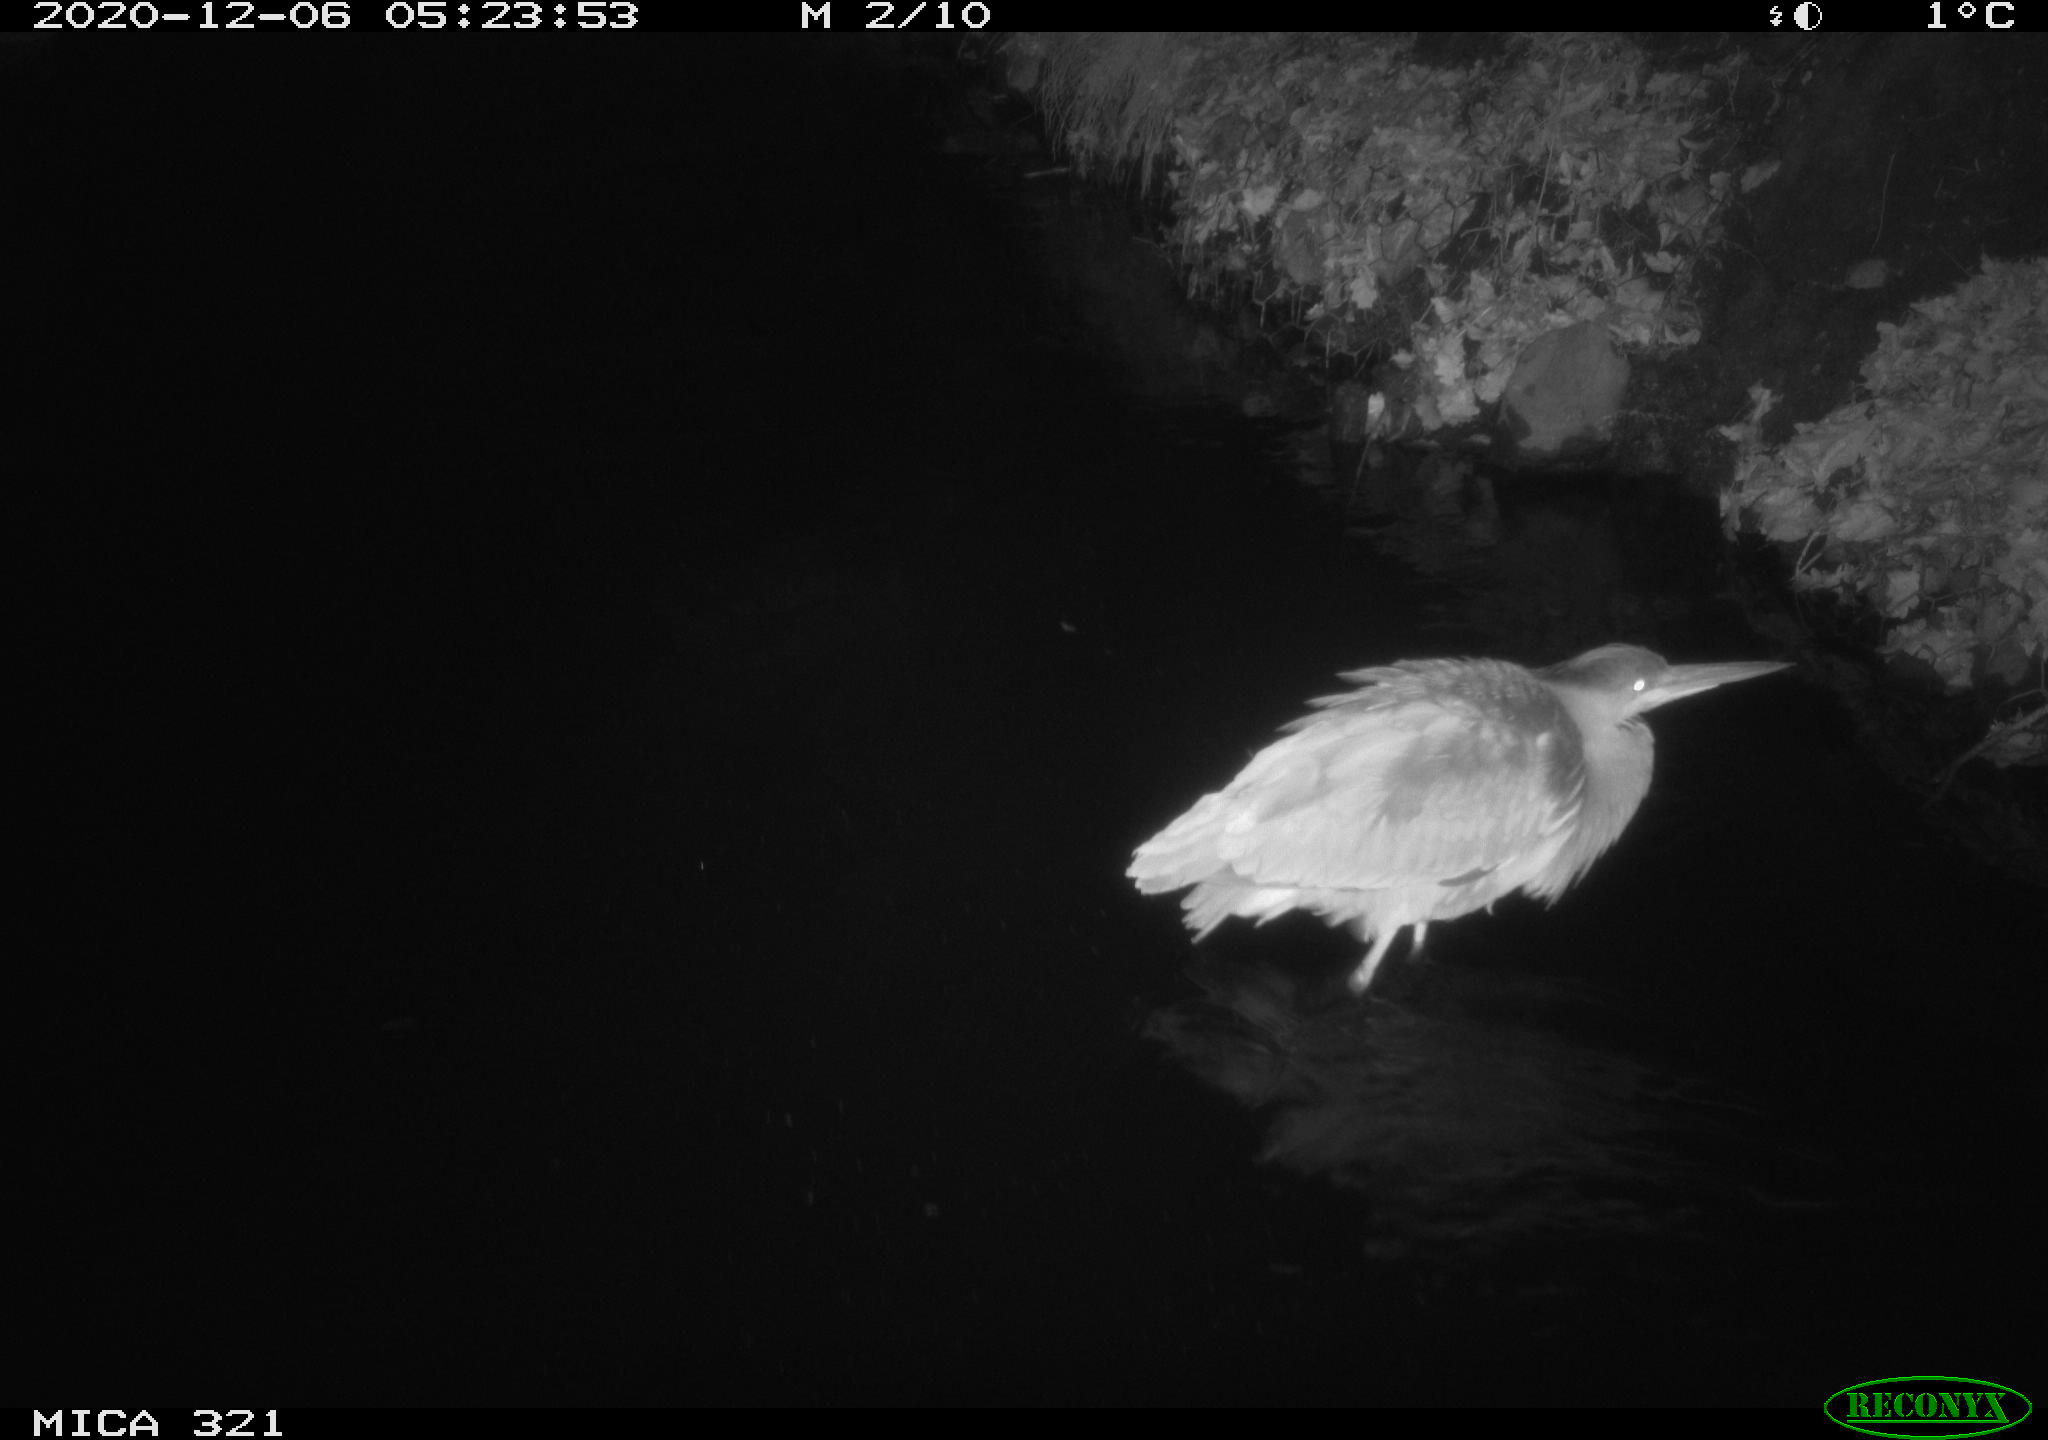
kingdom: Animalia
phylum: Chordata
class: Aves
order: Pelecaniformes
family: Ardeidae
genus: Ardea
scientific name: Ardea cinerea
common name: Grey heron
